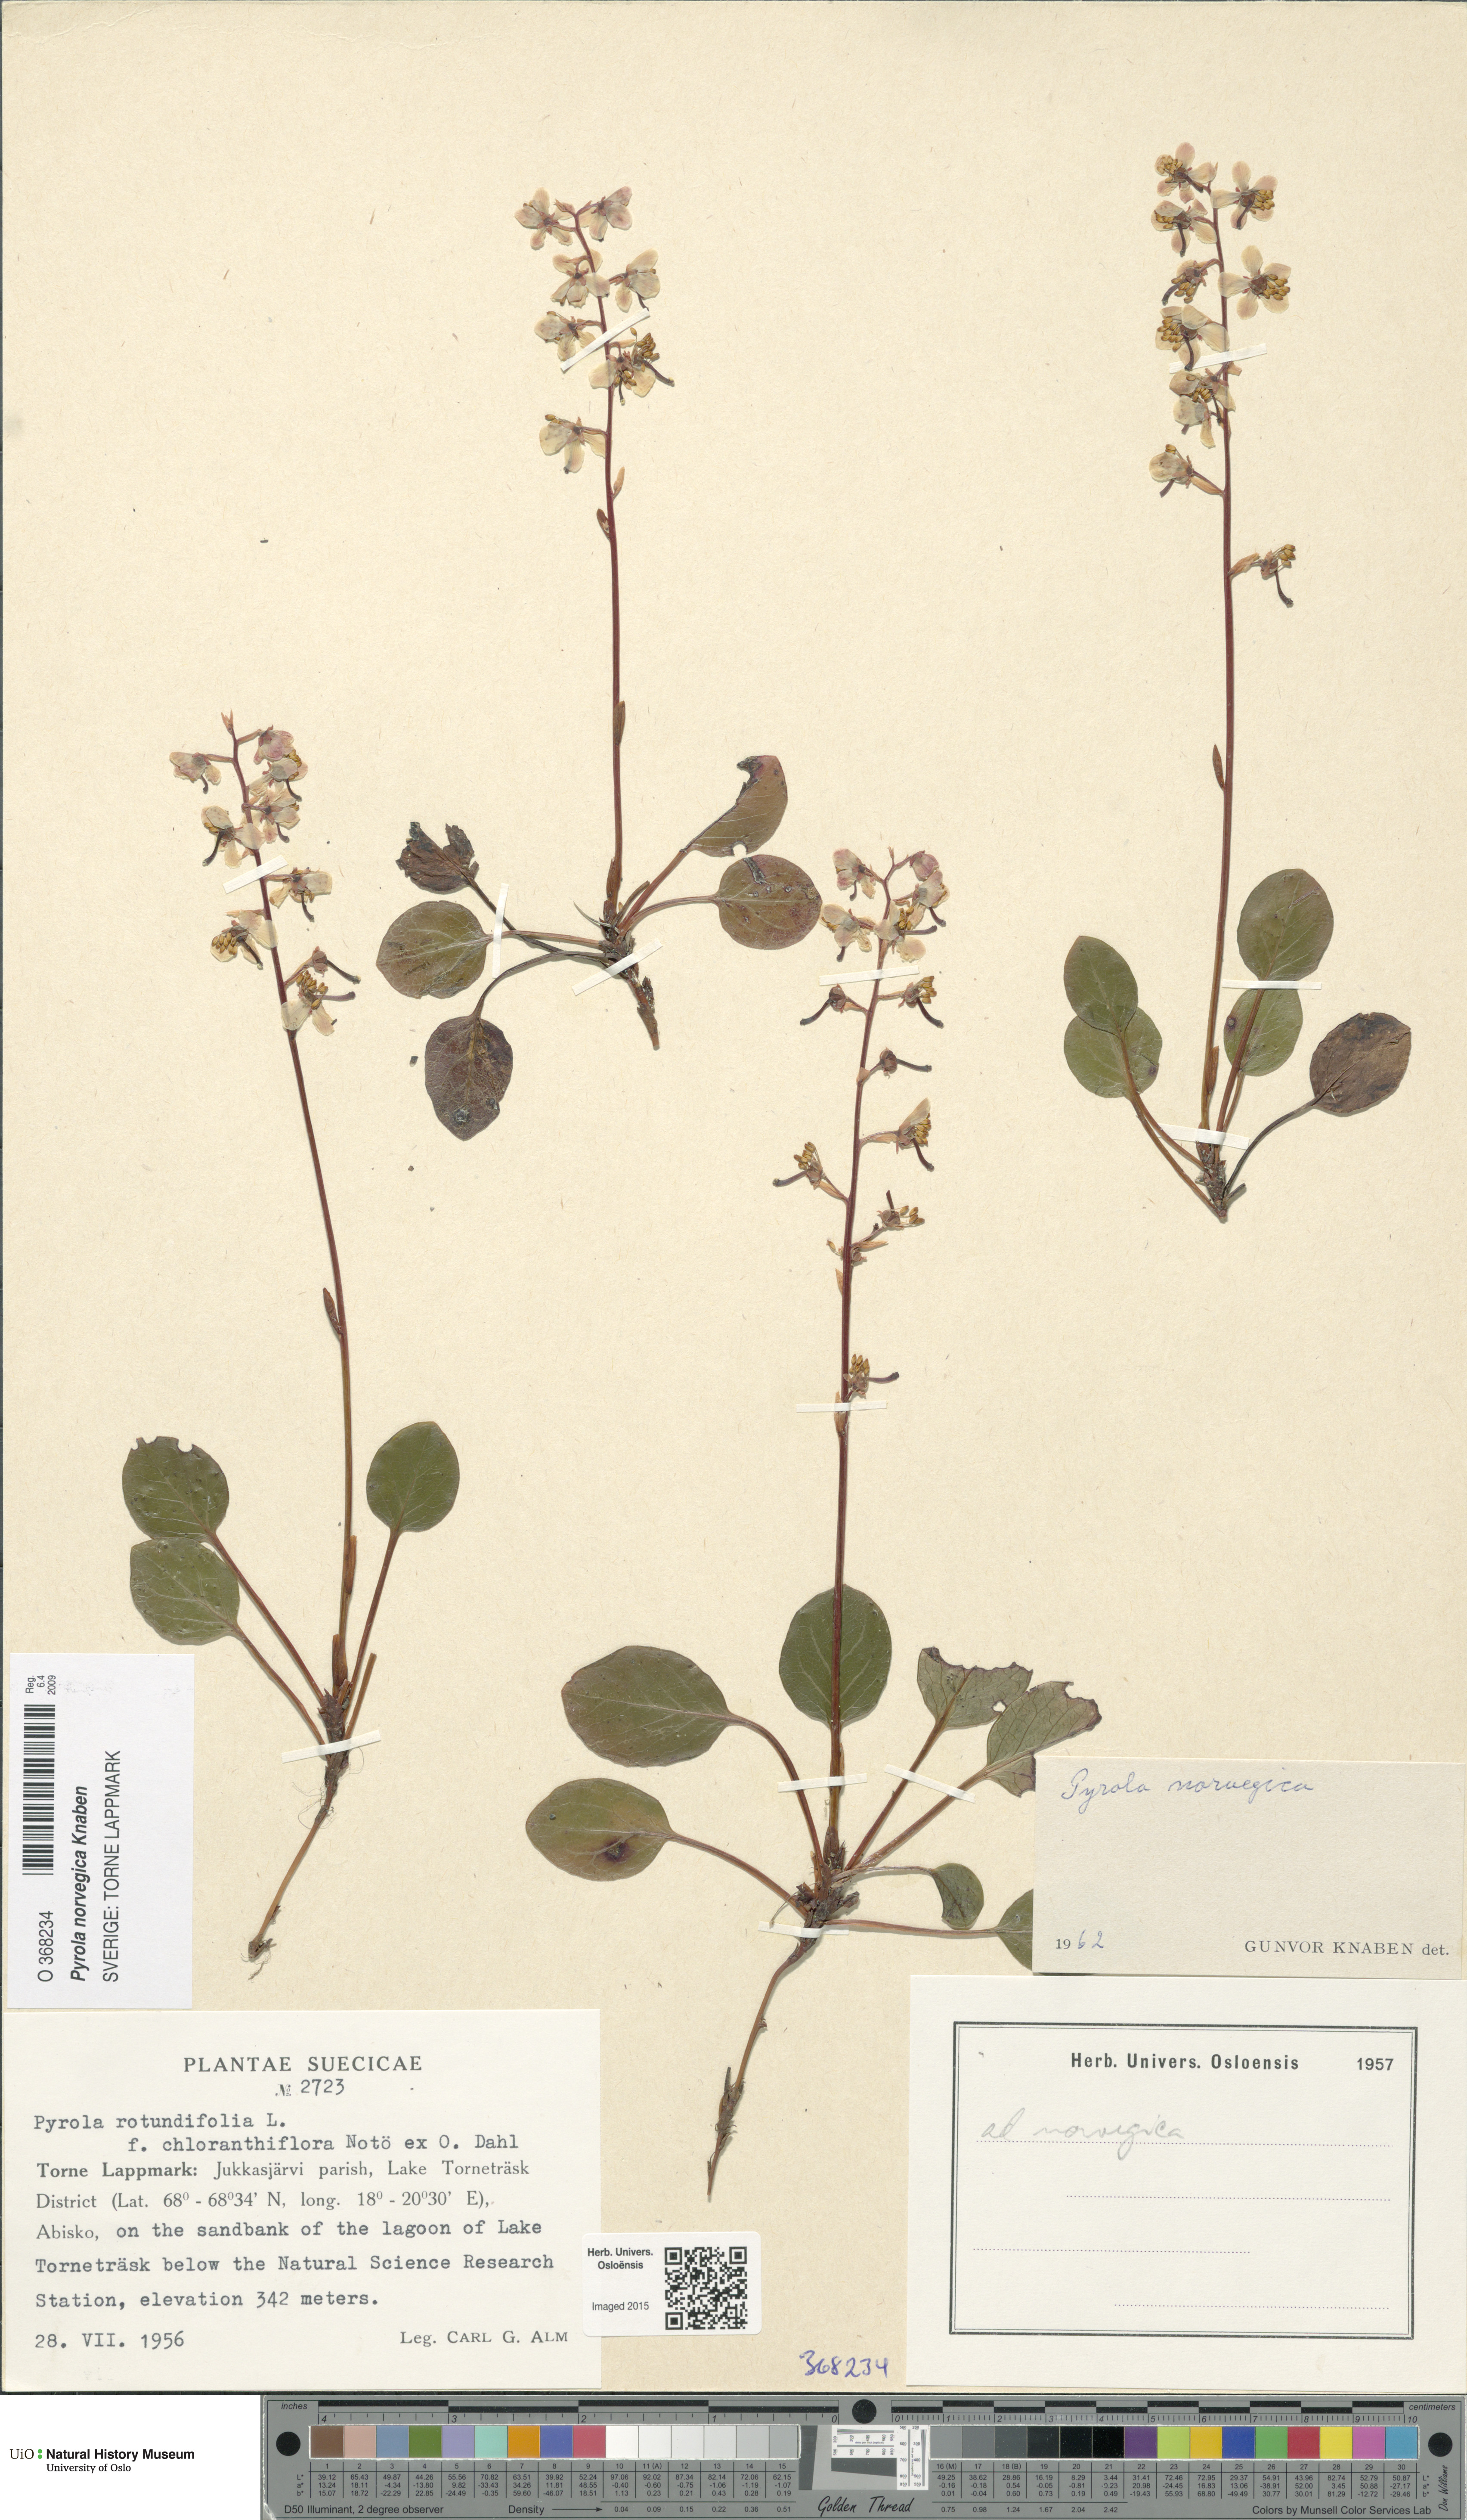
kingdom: Plantae
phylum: Tracheophyta
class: Magnoliopsida
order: Ericales
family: Ericaceae
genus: Pyrola
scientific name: Pyrola rotundifolia
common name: Round-leaved wintergreen
